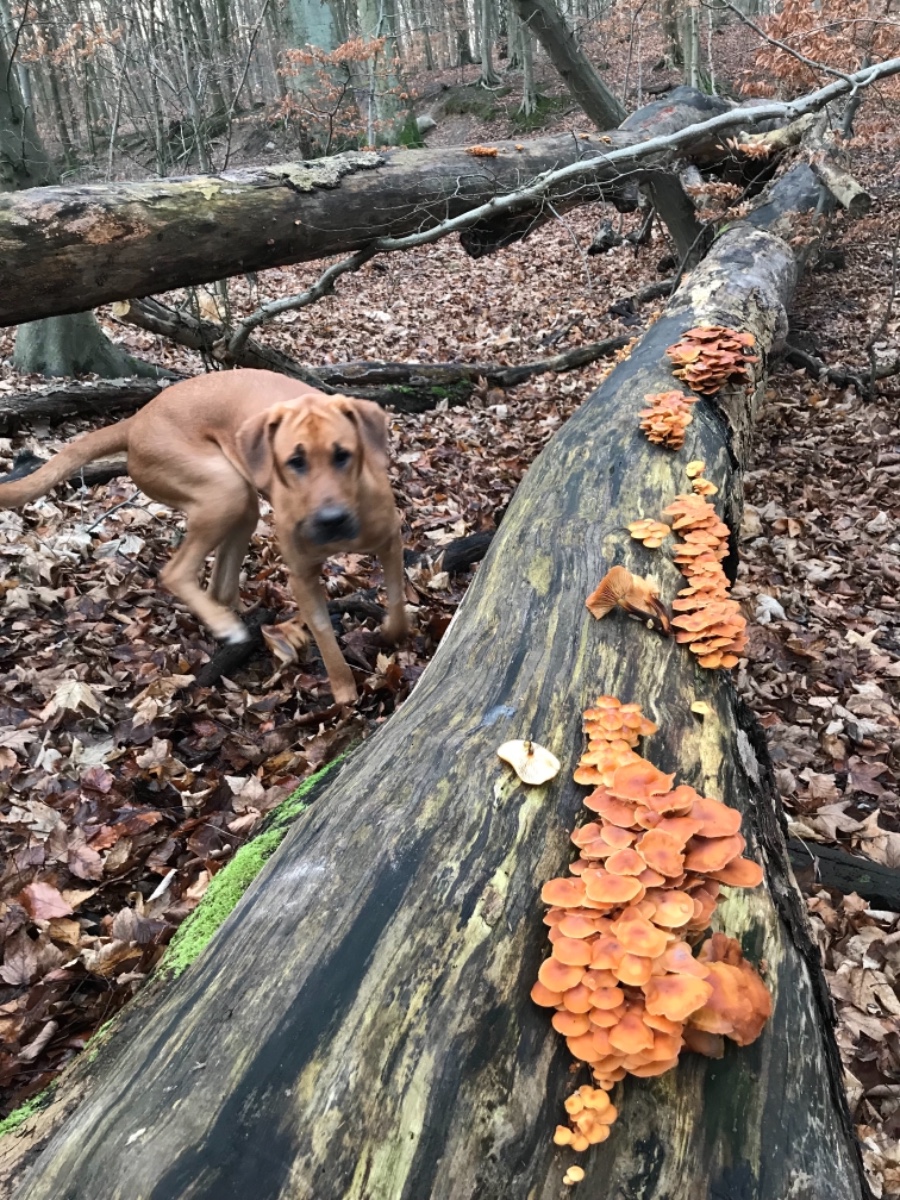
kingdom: Fungi
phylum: Basidiomycota
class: Agaricomycetes
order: Agaricales
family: Physalacriaceae
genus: Flammulina
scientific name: Flammulina velutipes
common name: gul fløjlsfod
